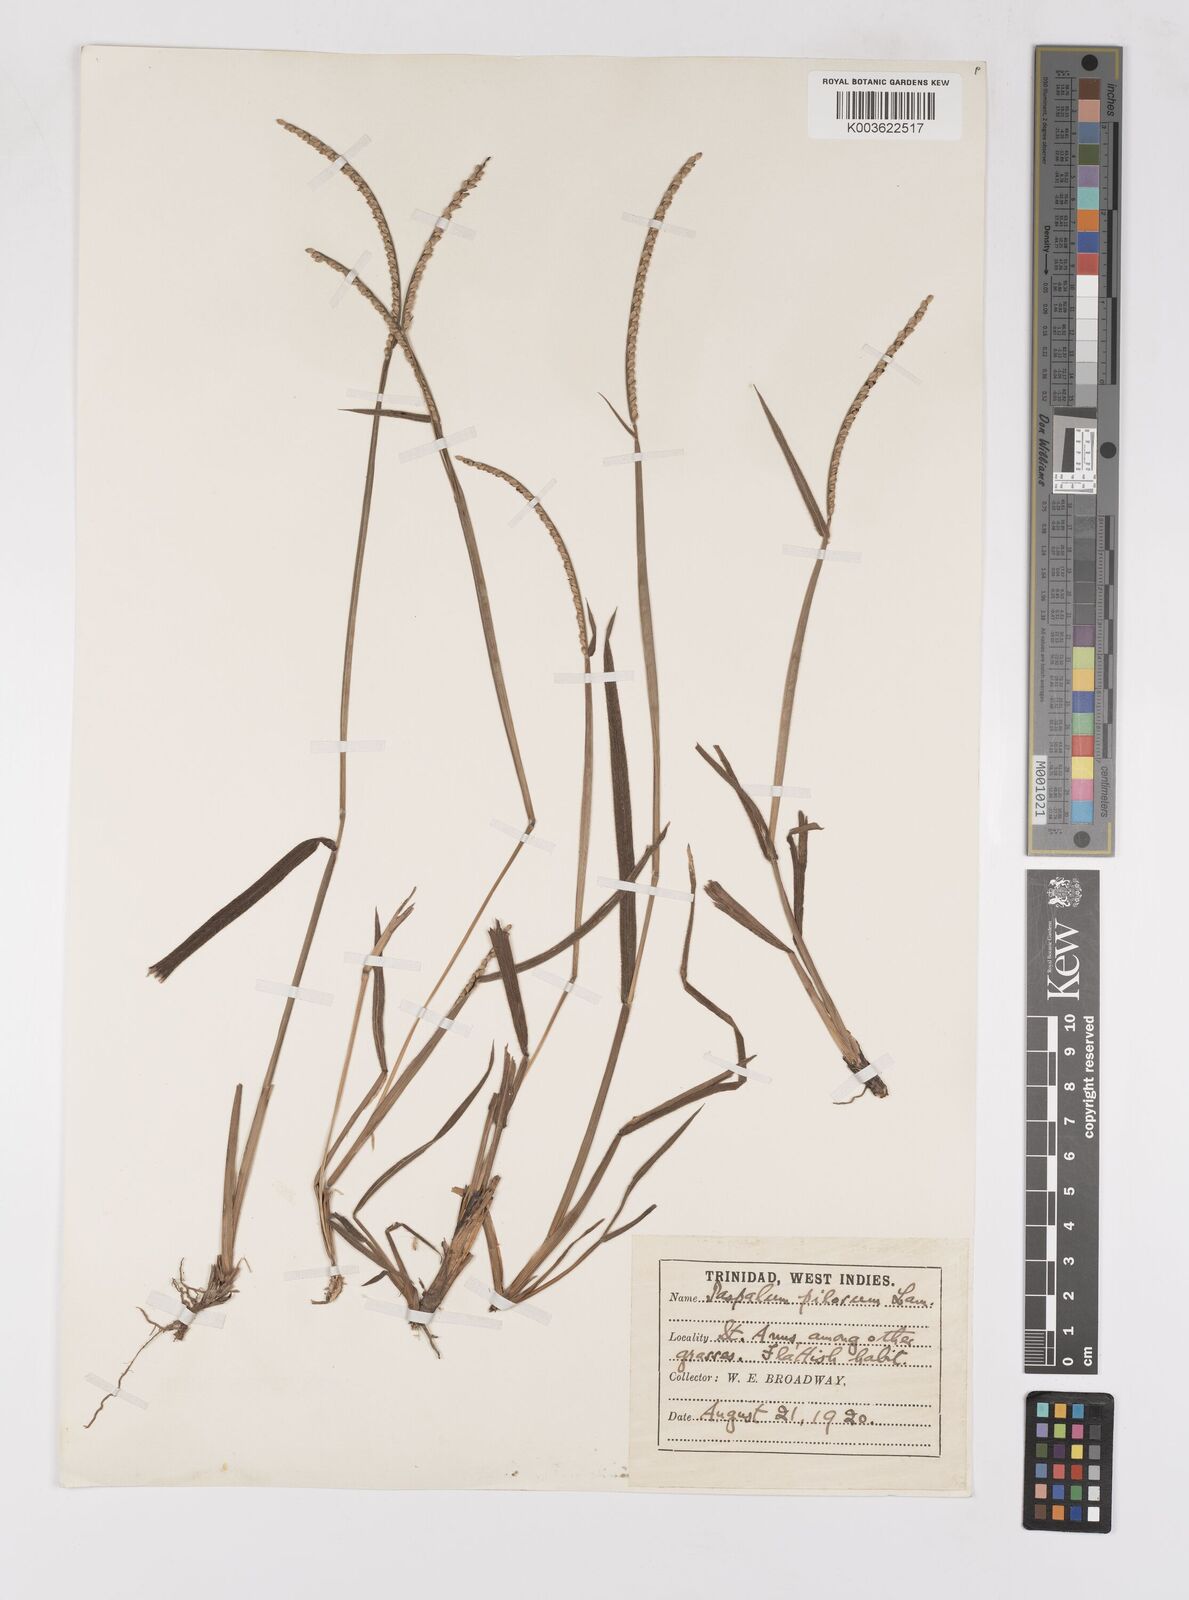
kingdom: Plantae
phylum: Tracheophyta
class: Liliopsida
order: Poales
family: Poaceae
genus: Paspalum
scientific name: Paspalum pilosum
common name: Crowngrass
